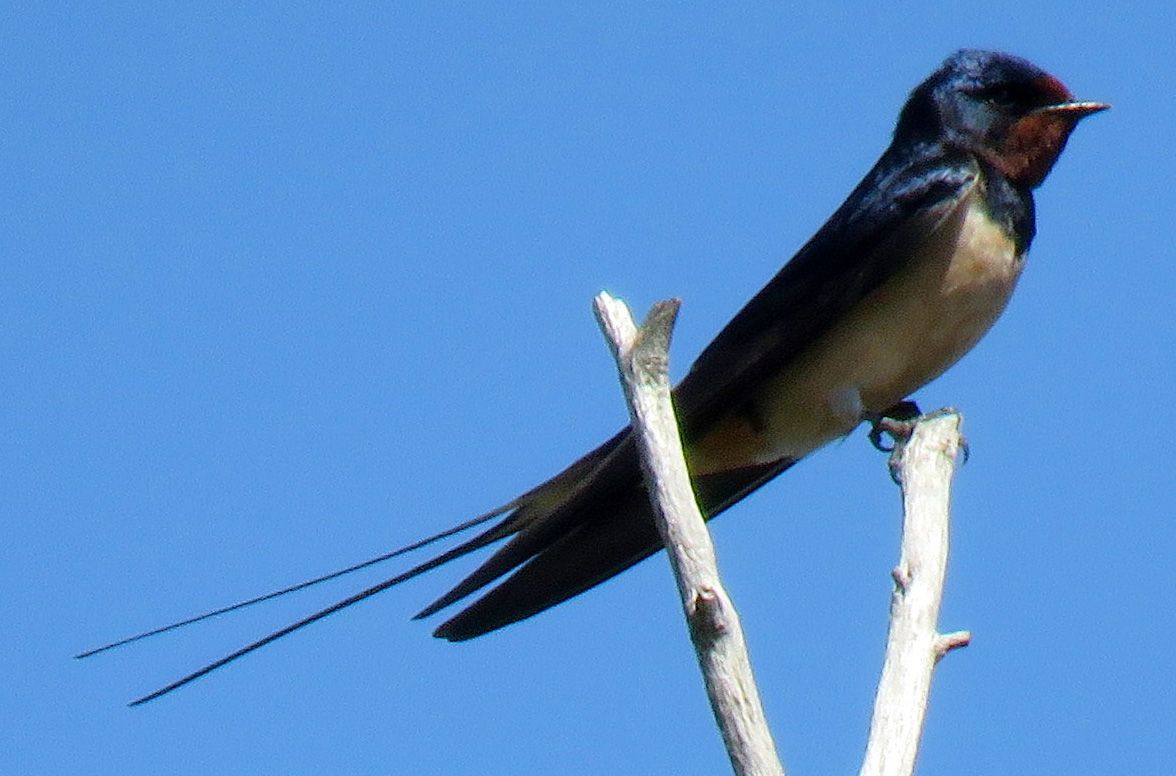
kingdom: Animalia
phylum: Chordata
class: Aves
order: Passeriformes
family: Hirundinidae
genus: Hirundo
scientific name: Hirundo rustica
